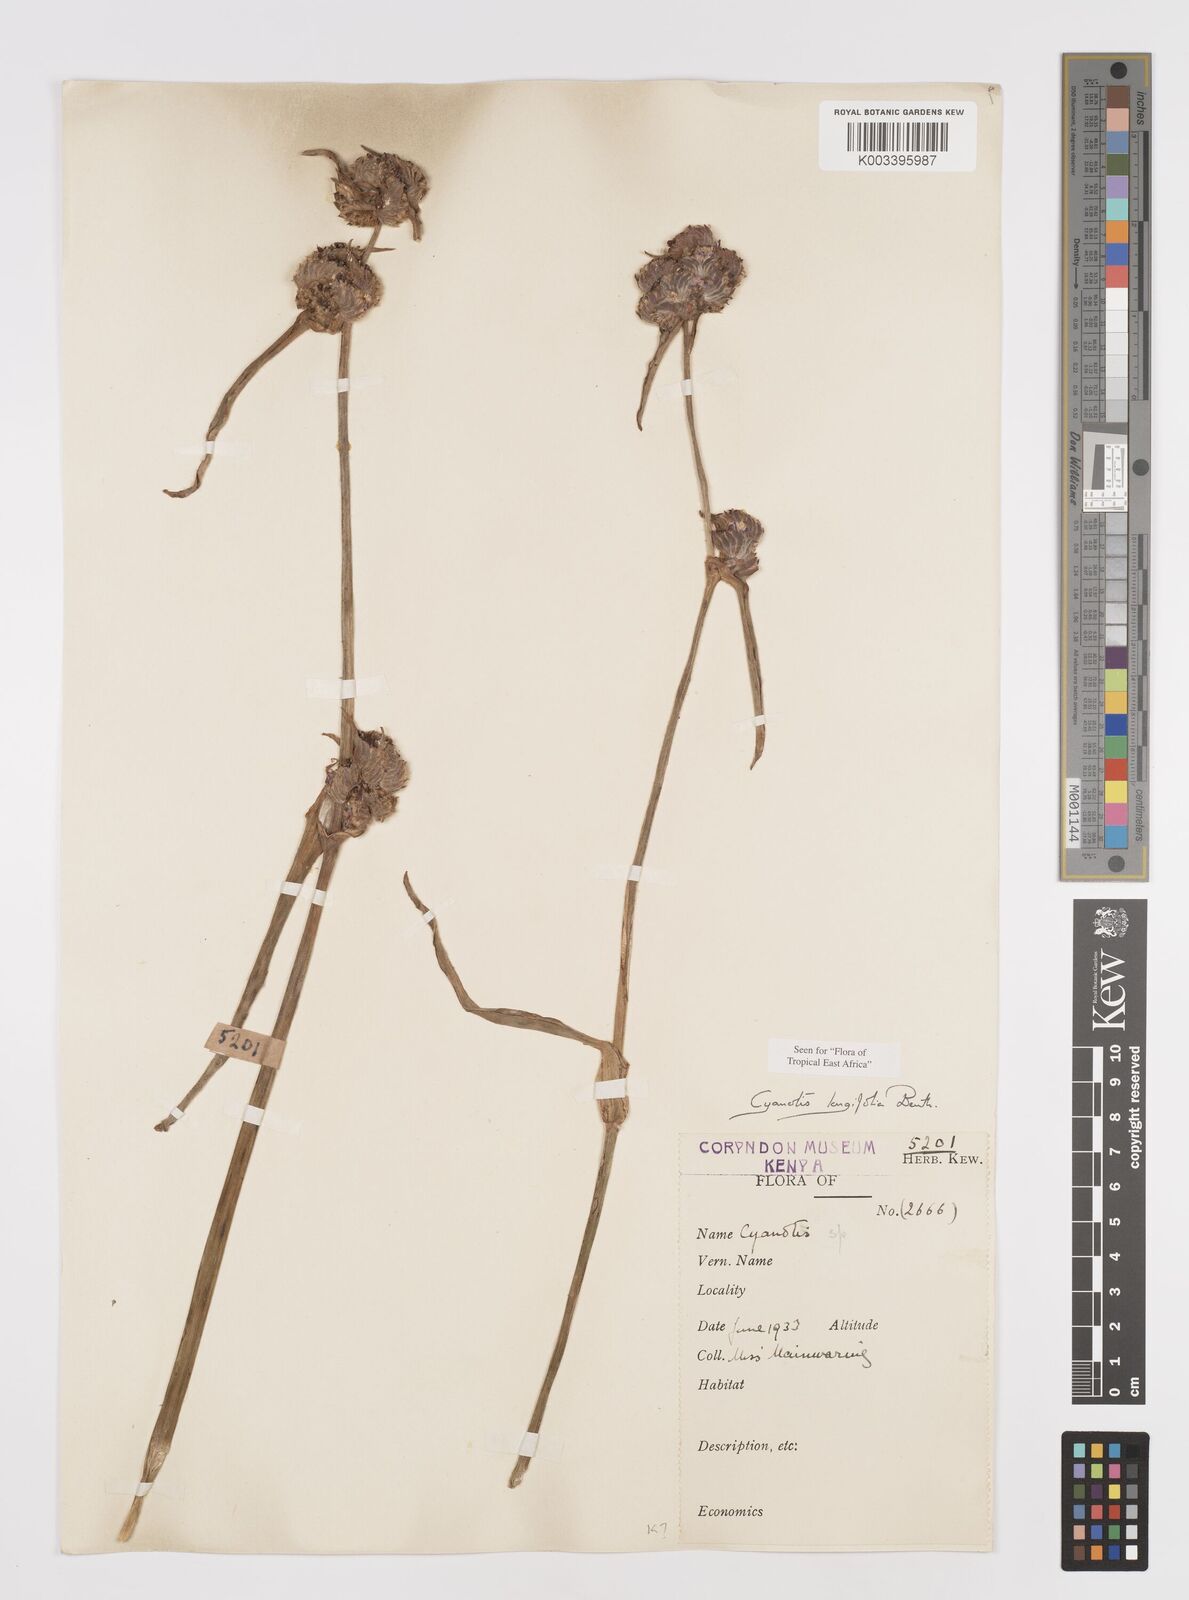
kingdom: Plantae
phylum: Tracheophyta
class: Liliopsida
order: Commelinales
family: Commelinaceae
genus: Cyanotis
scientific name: Cyanotis longifolia
